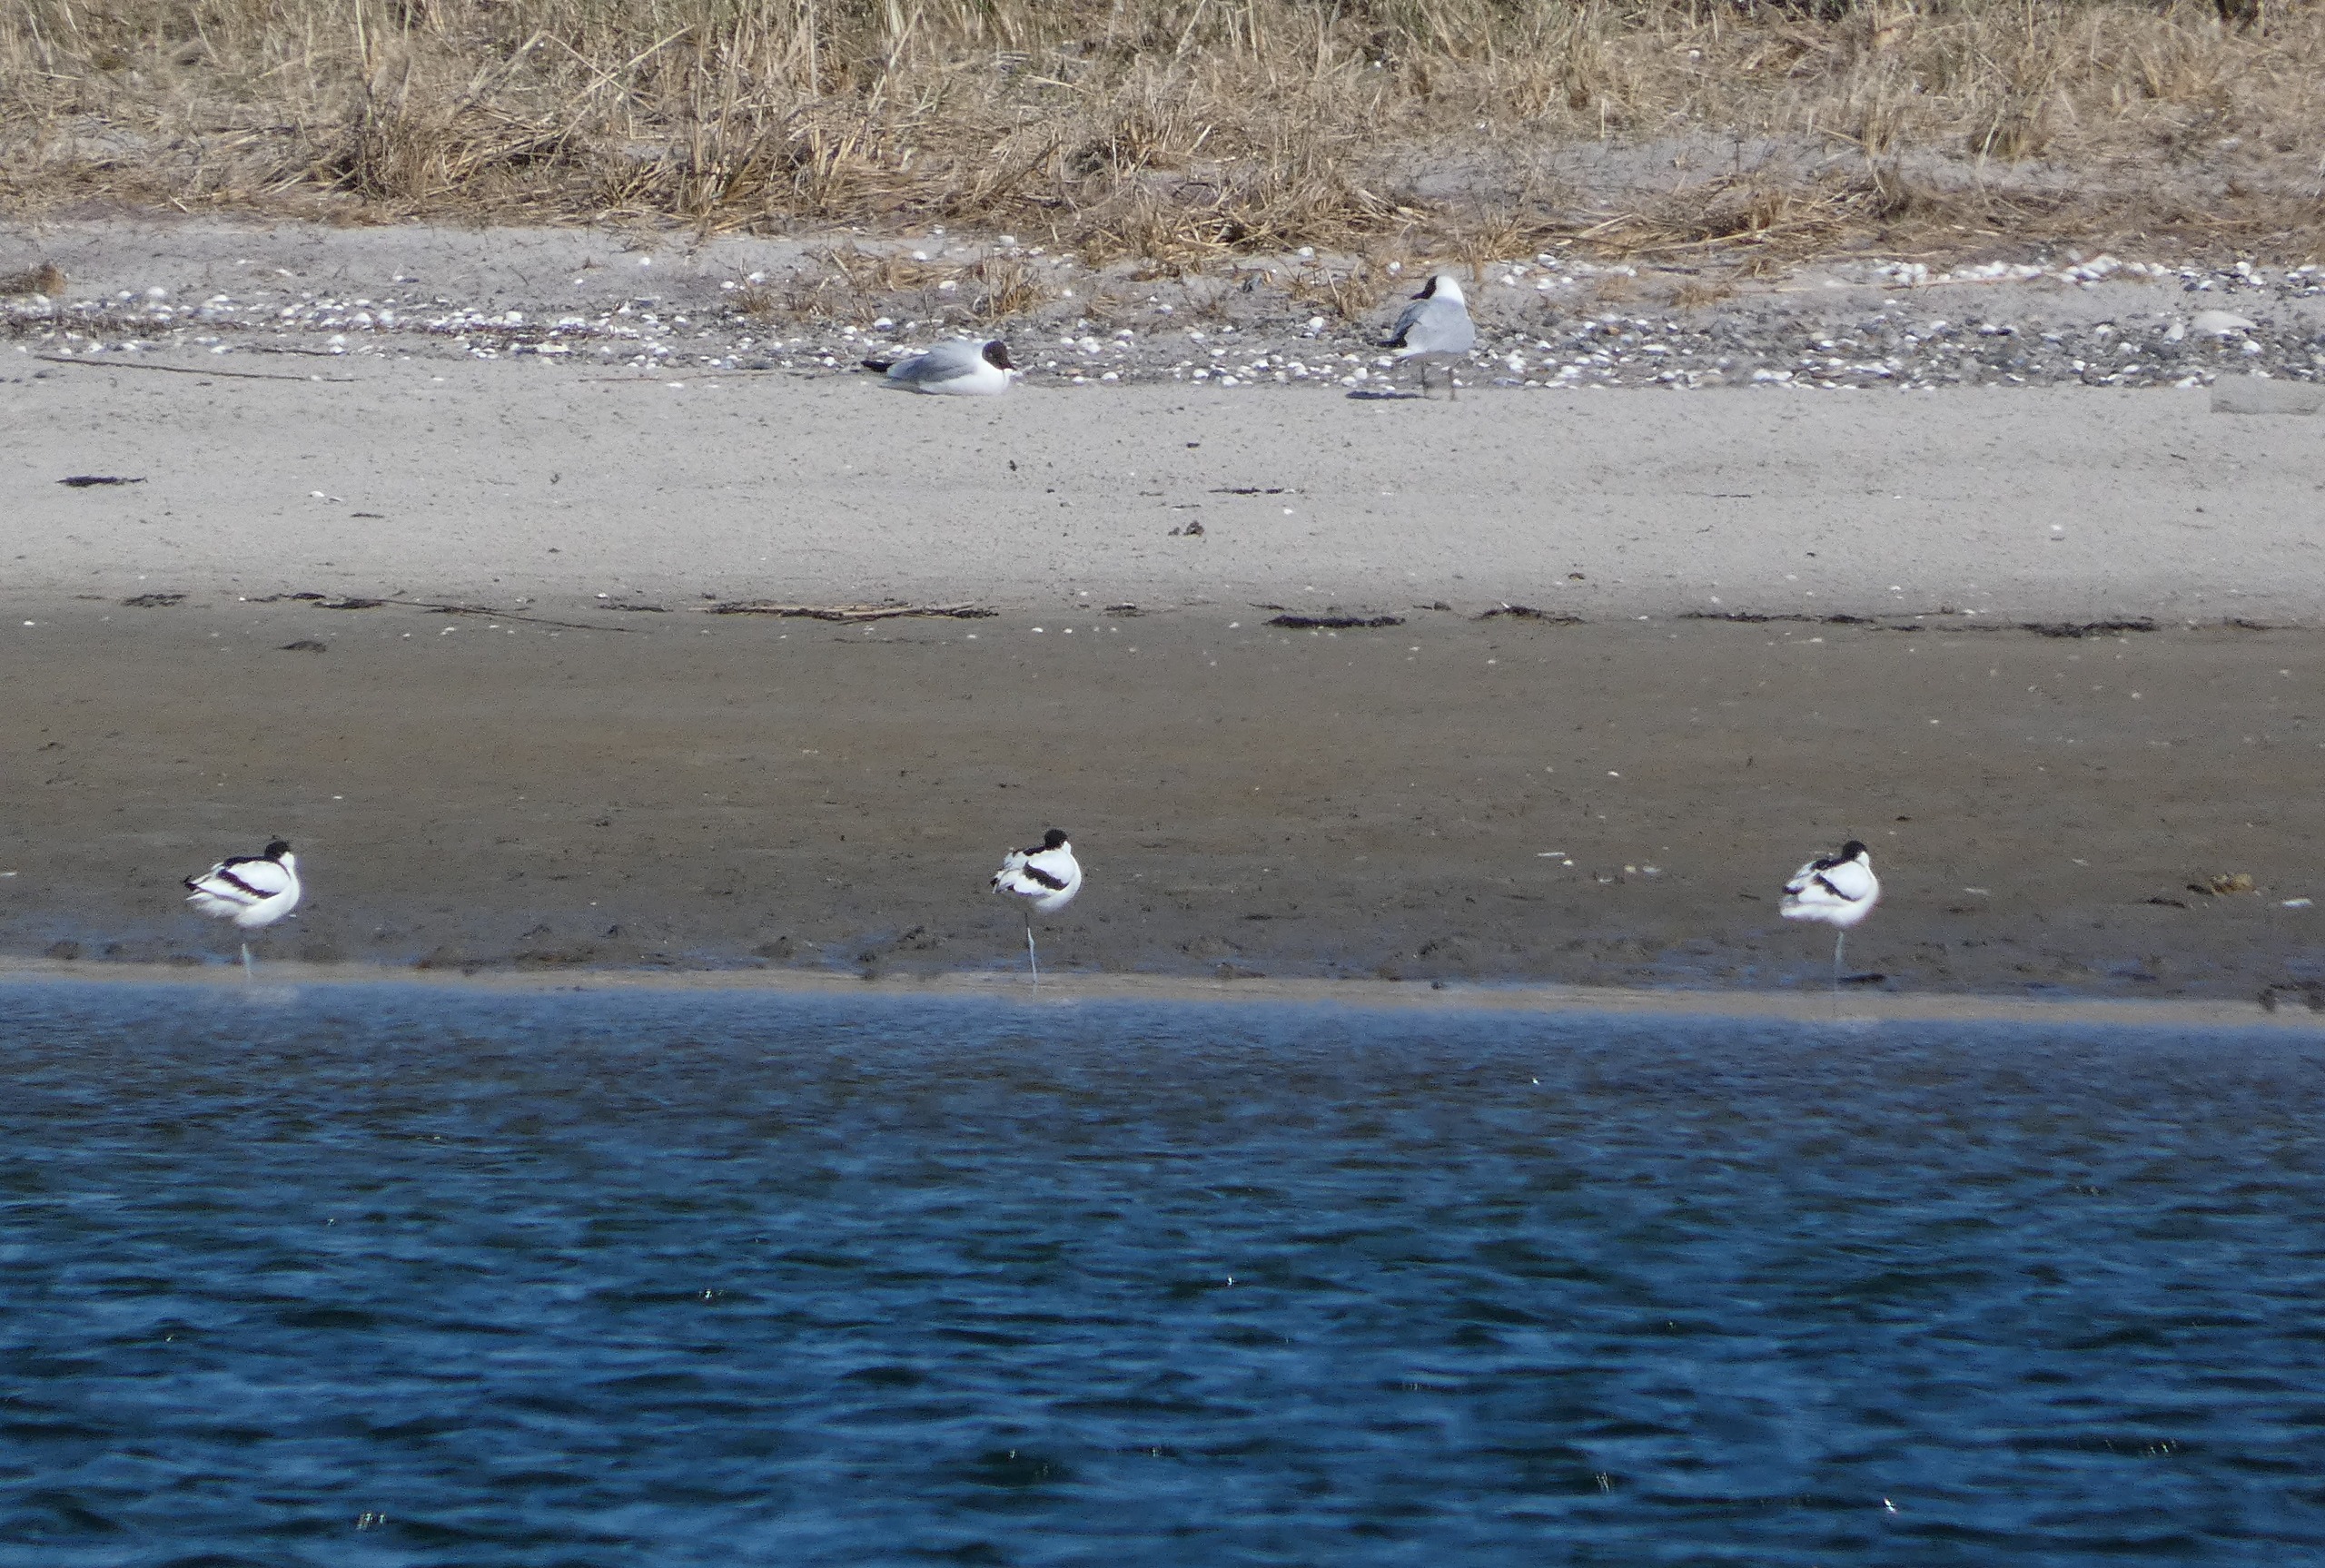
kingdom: Animalia
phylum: Chordata
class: Aves
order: Charadriiformes
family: Recurvirostridae
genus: Recurvirostra
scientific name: Recurvirostra avosetta
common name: Klyde
